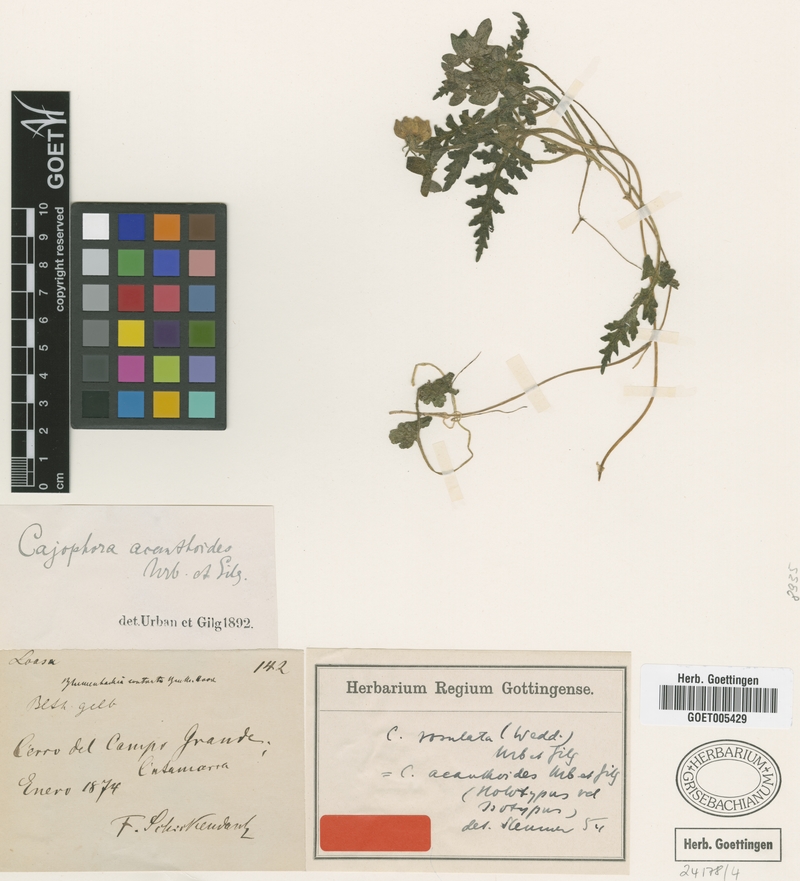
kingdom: Plantae
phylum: Tracheophyta
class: Magnoliopsida
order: Cornales
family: Loasaceae
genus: Caiophora
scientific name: Caiophora rosulata
